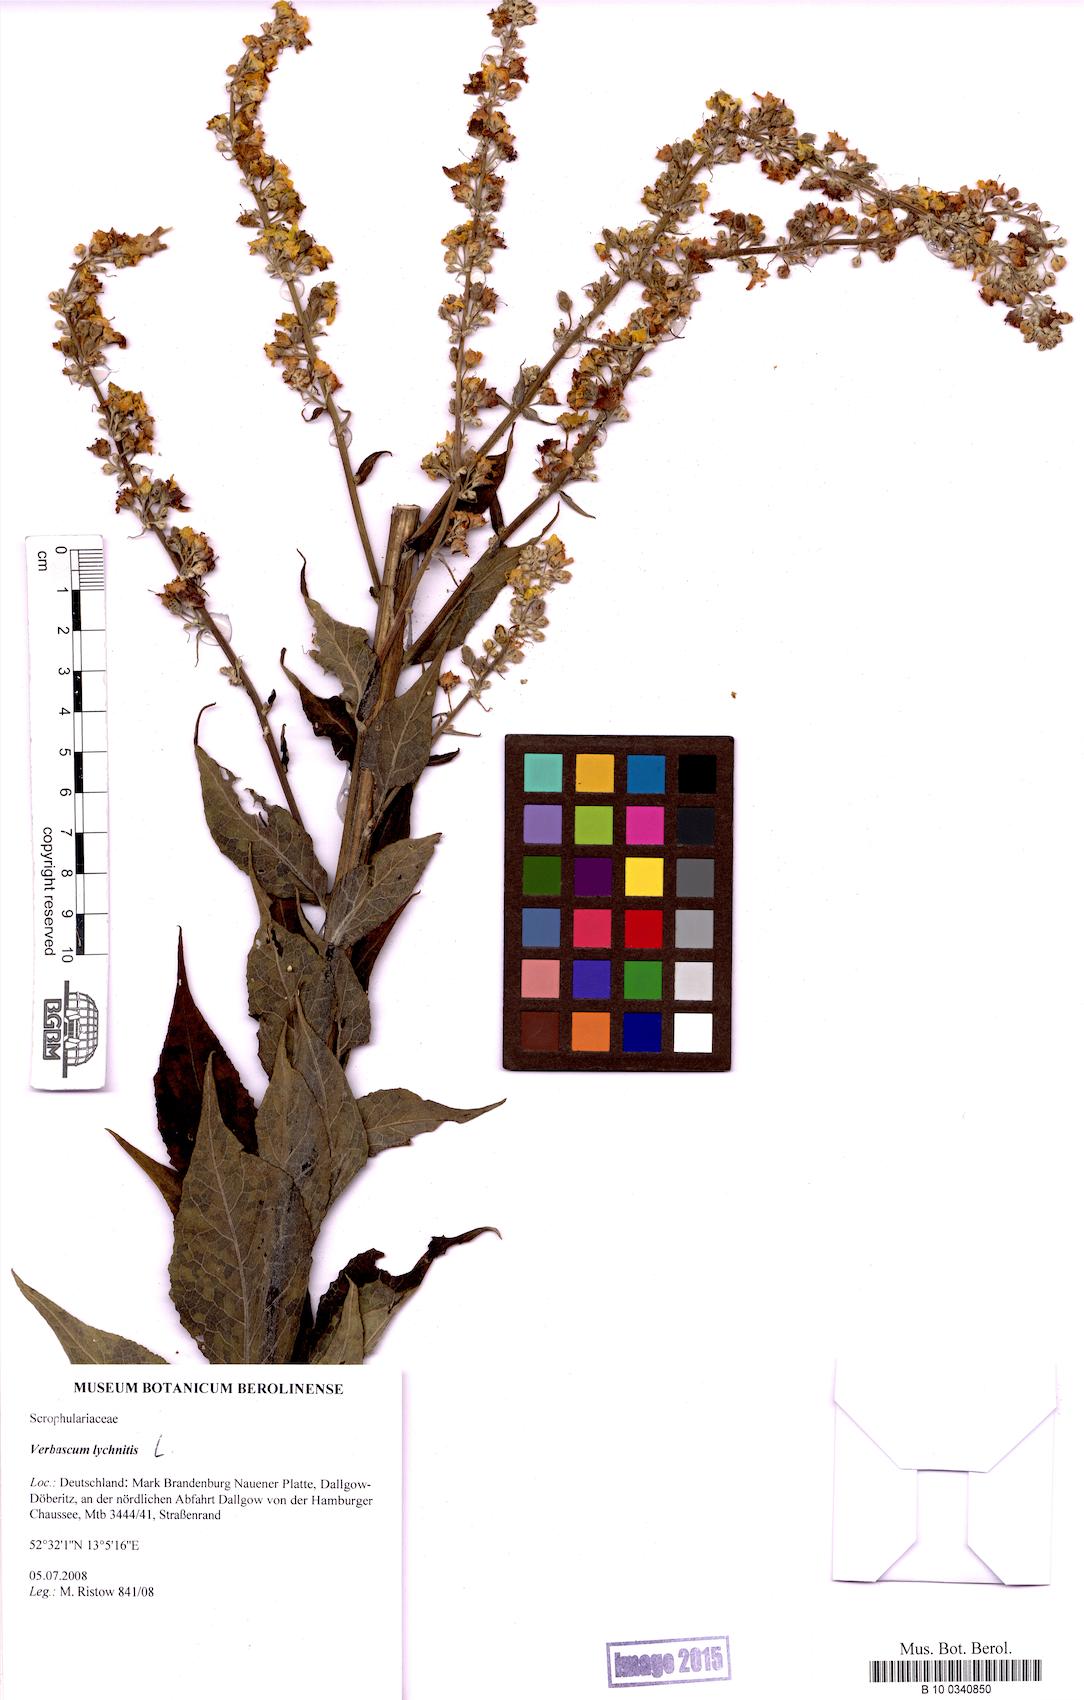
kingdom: Plantae
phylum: Tracheophyta
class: Magnoliopsida
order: Lamiales
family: Scrophulariaceae
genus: Verbascum
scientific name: Verbascum lychnitis
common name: White mullein
